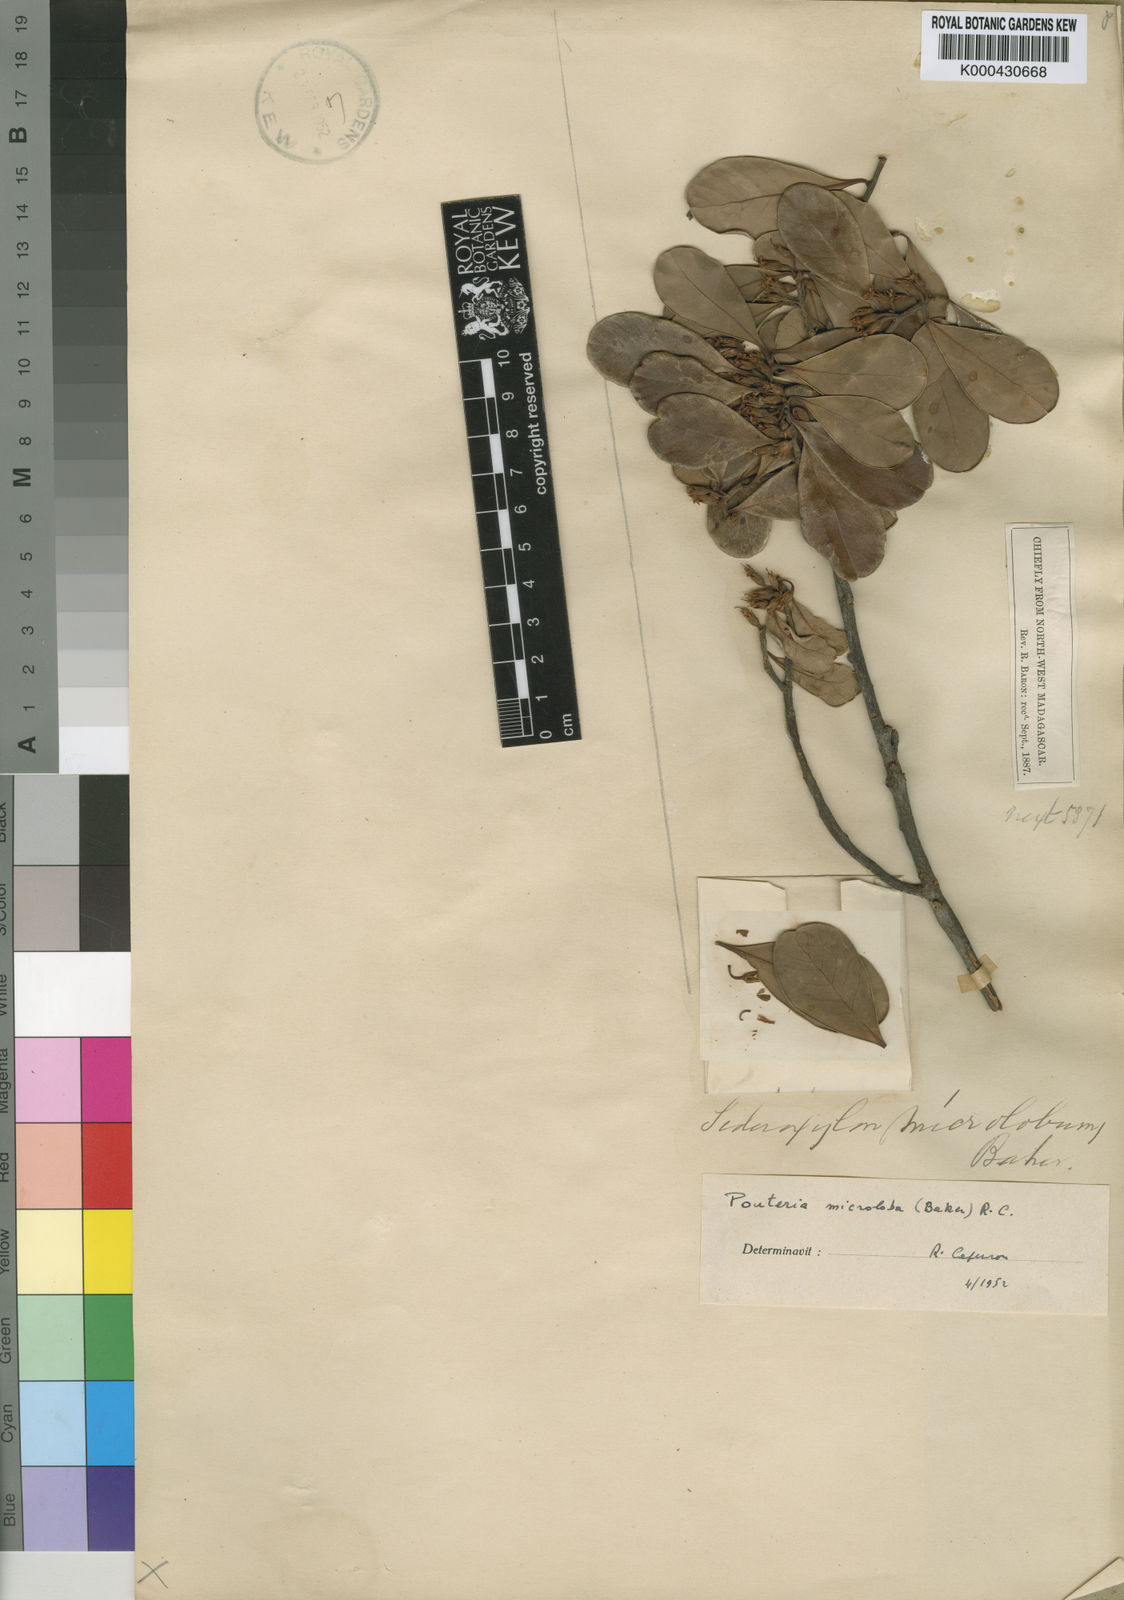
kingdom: Plantae
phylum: Tracheophyta
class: Magnoliopsida
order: Ericales
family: Sapotaceae
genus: Capurodendron
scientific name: Capurodendron
